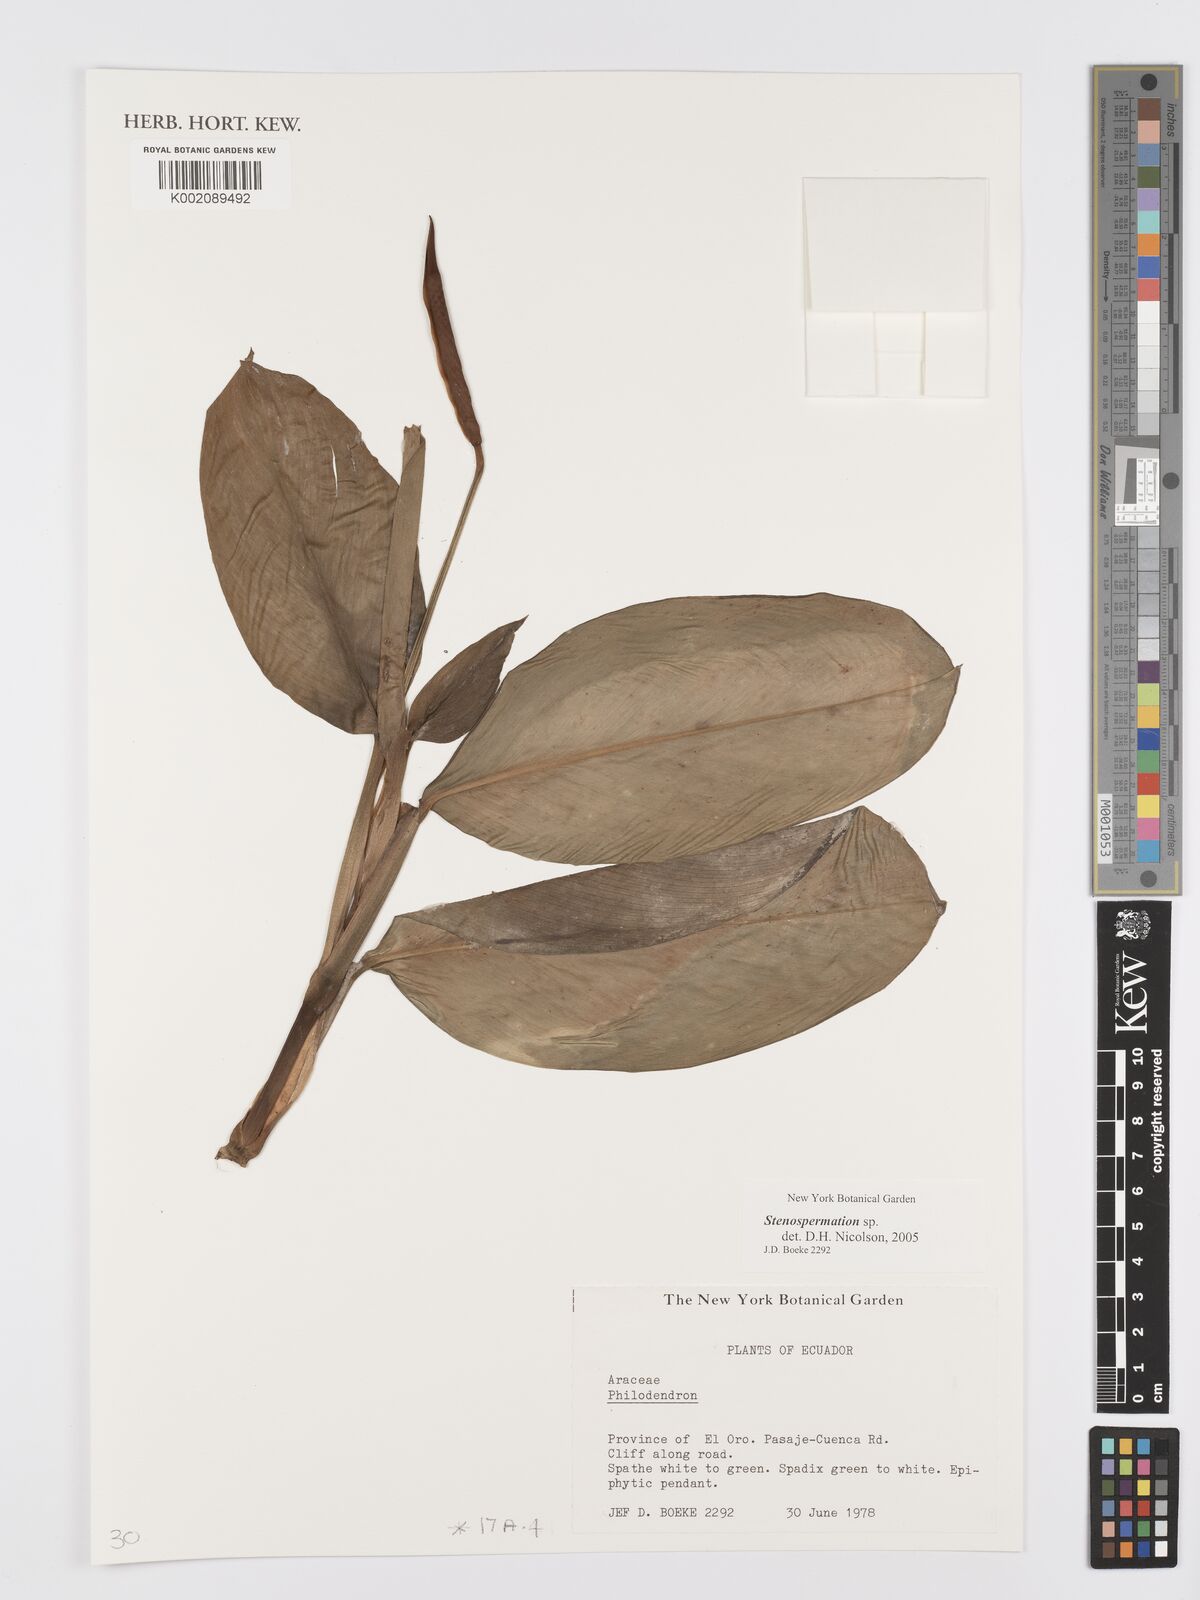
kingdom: Plantae
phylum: Tracheophyta
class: Liliopsida
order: Alismatales
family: Araceae
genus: Stenospermation
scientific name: Stenospermation
